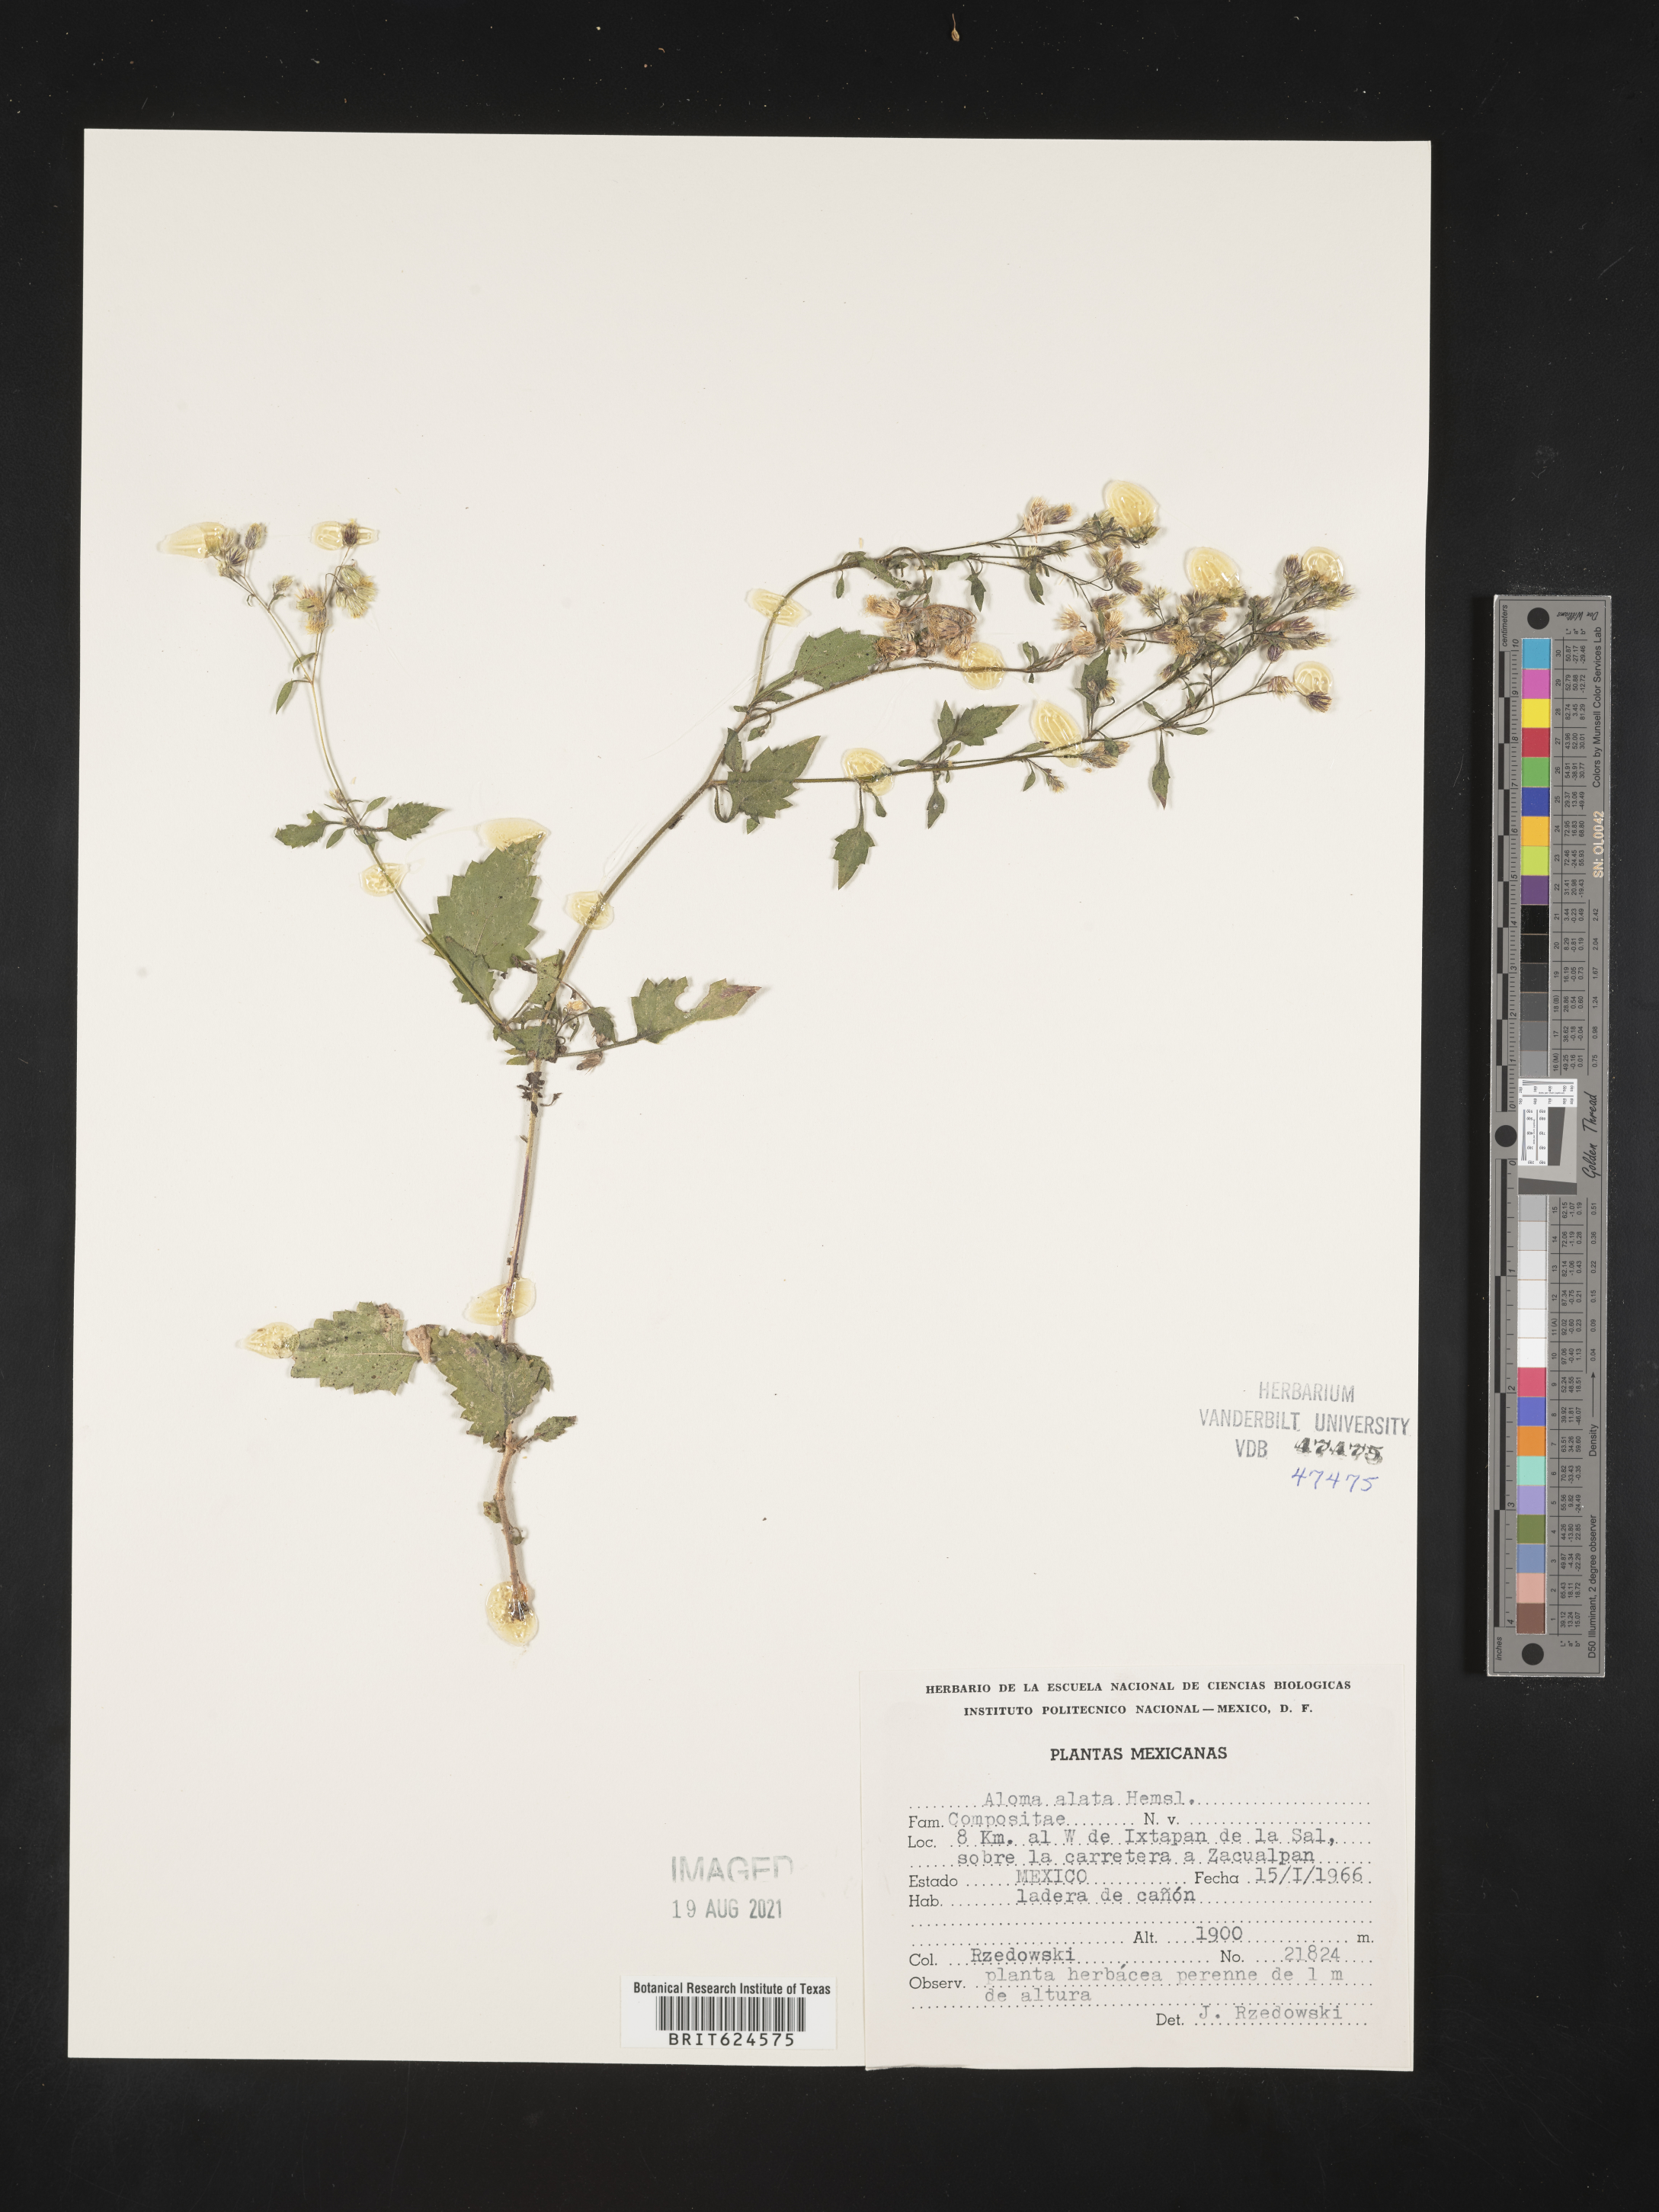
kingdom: Plantae
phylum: Tracheophyta
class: Magnoliopsida
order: Asterales
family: Asteraceae
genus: Aldama
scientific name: Aldama
